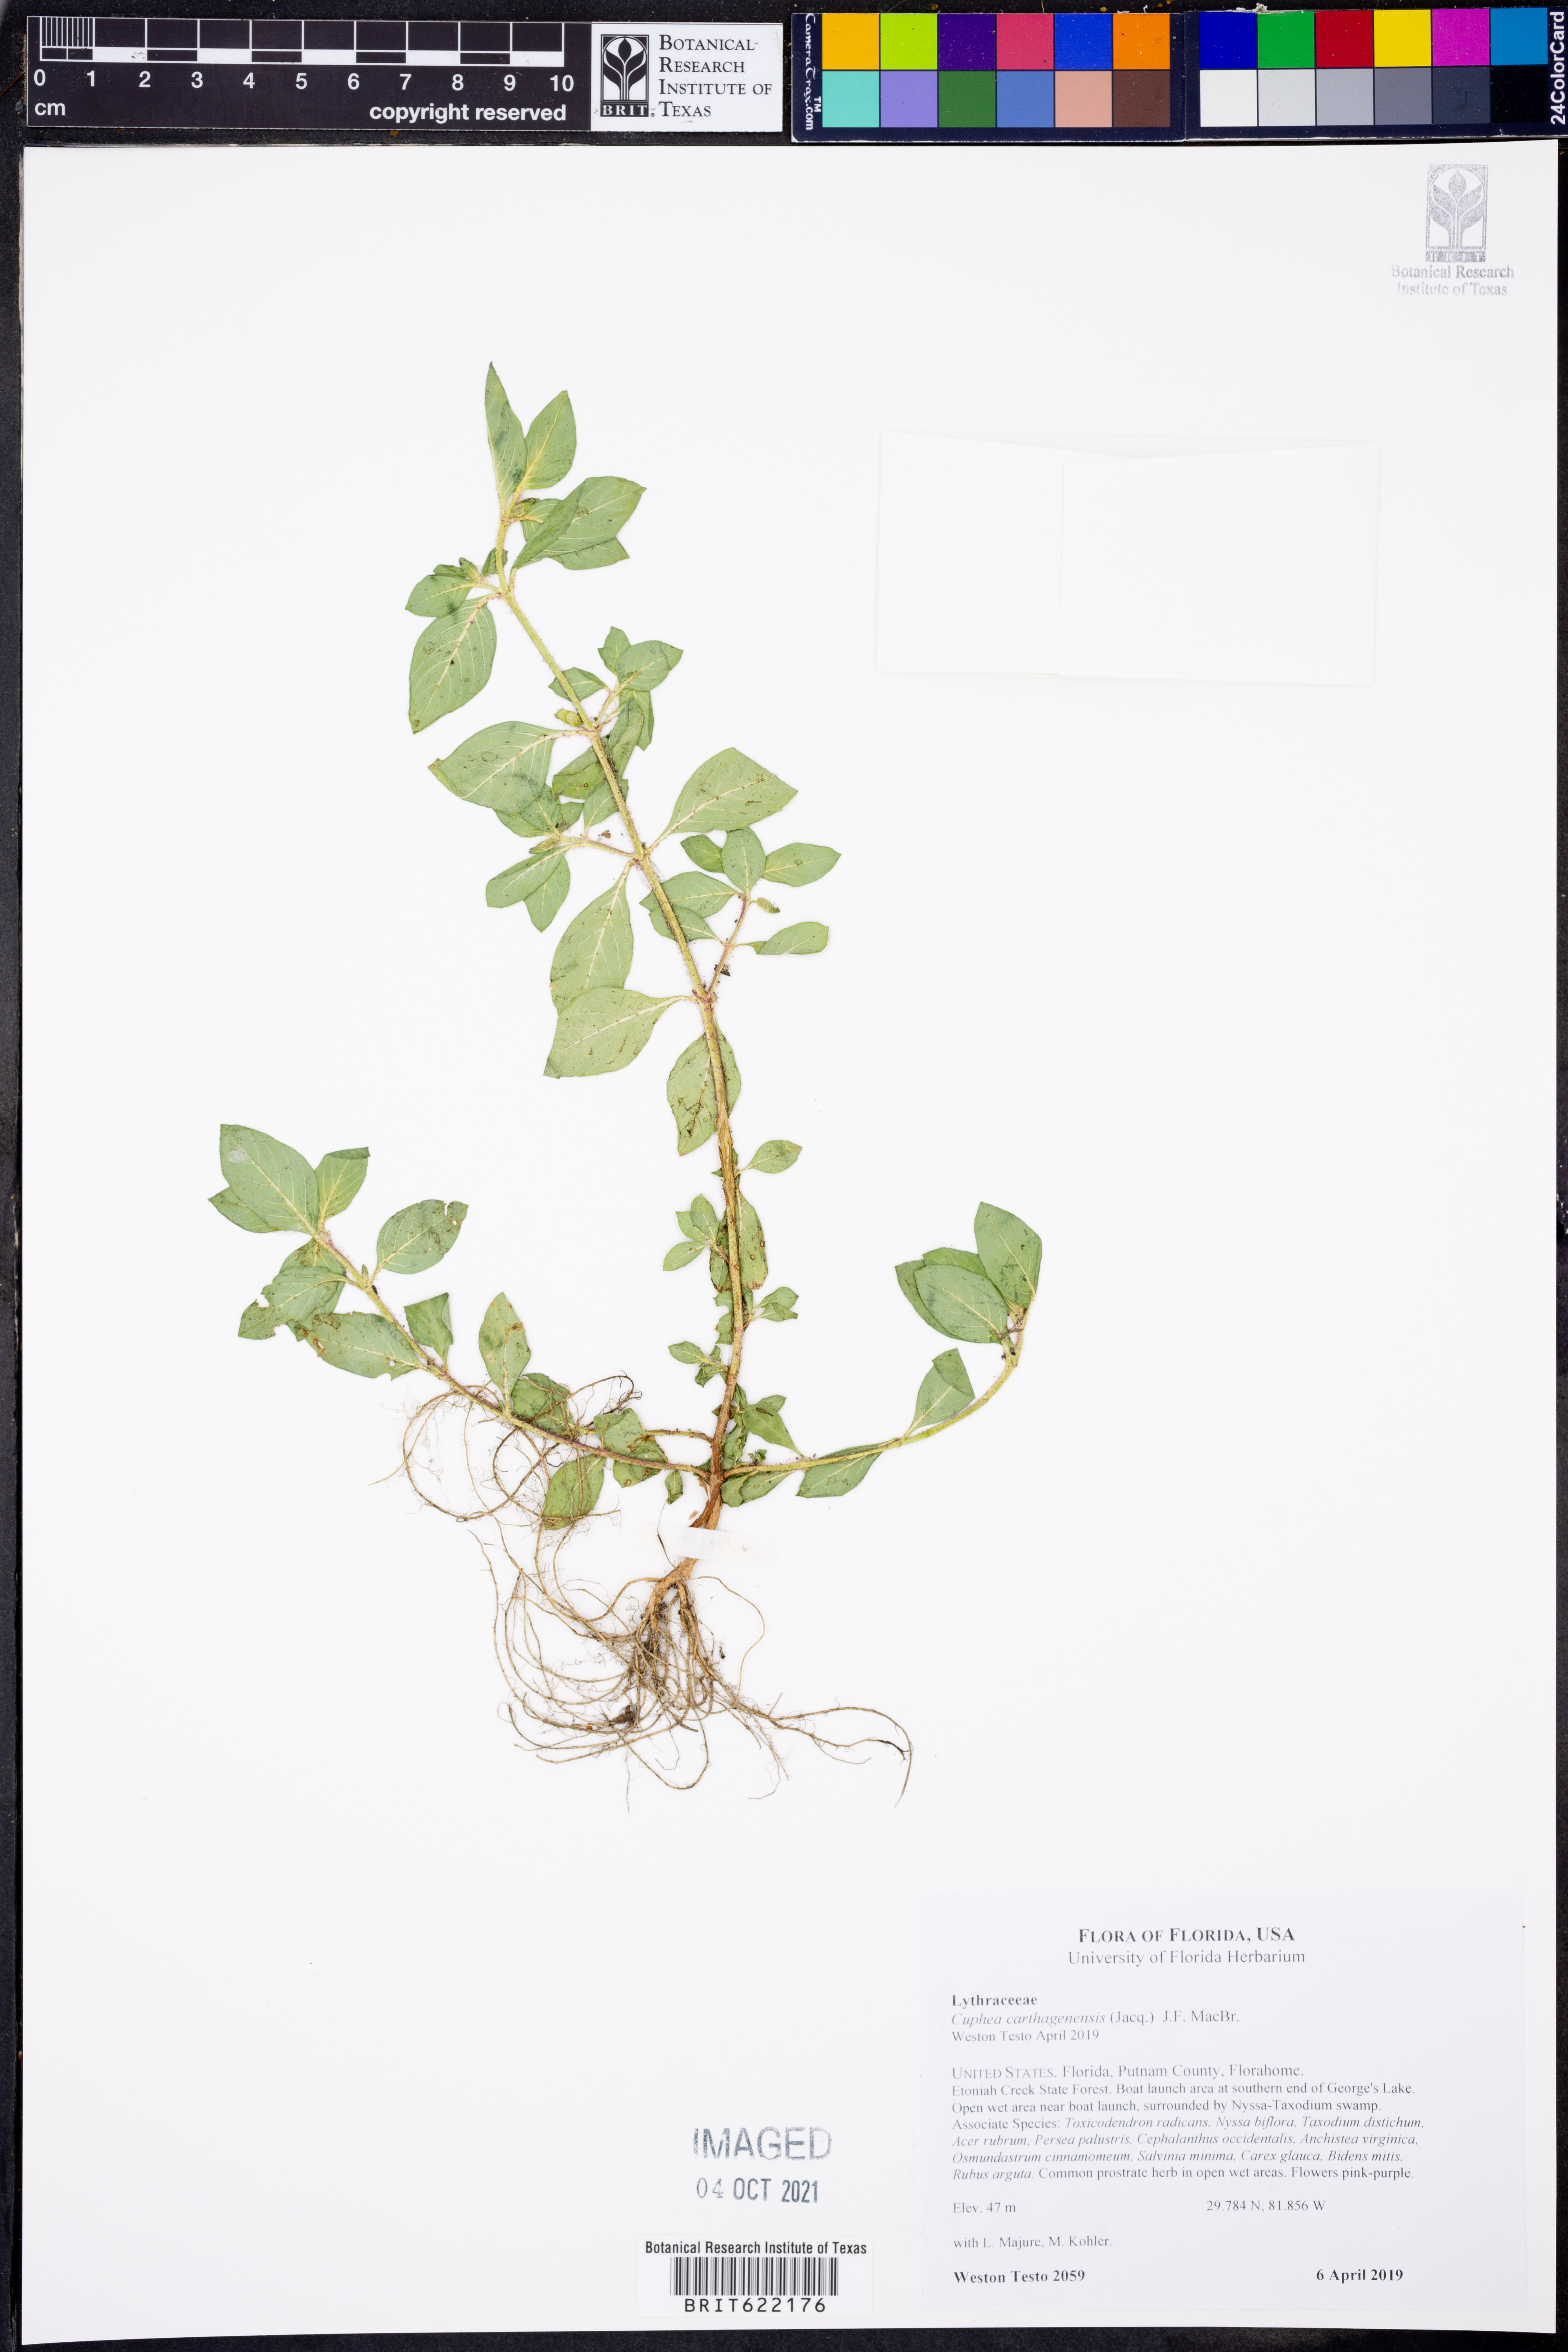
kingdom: Plantae
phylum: Tracheophyta
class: Magnoliopsida
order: Myrtales
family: Lythraceae
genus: Cuphea
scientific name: Cuphea carthagenensis
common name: Colombian waxweed
